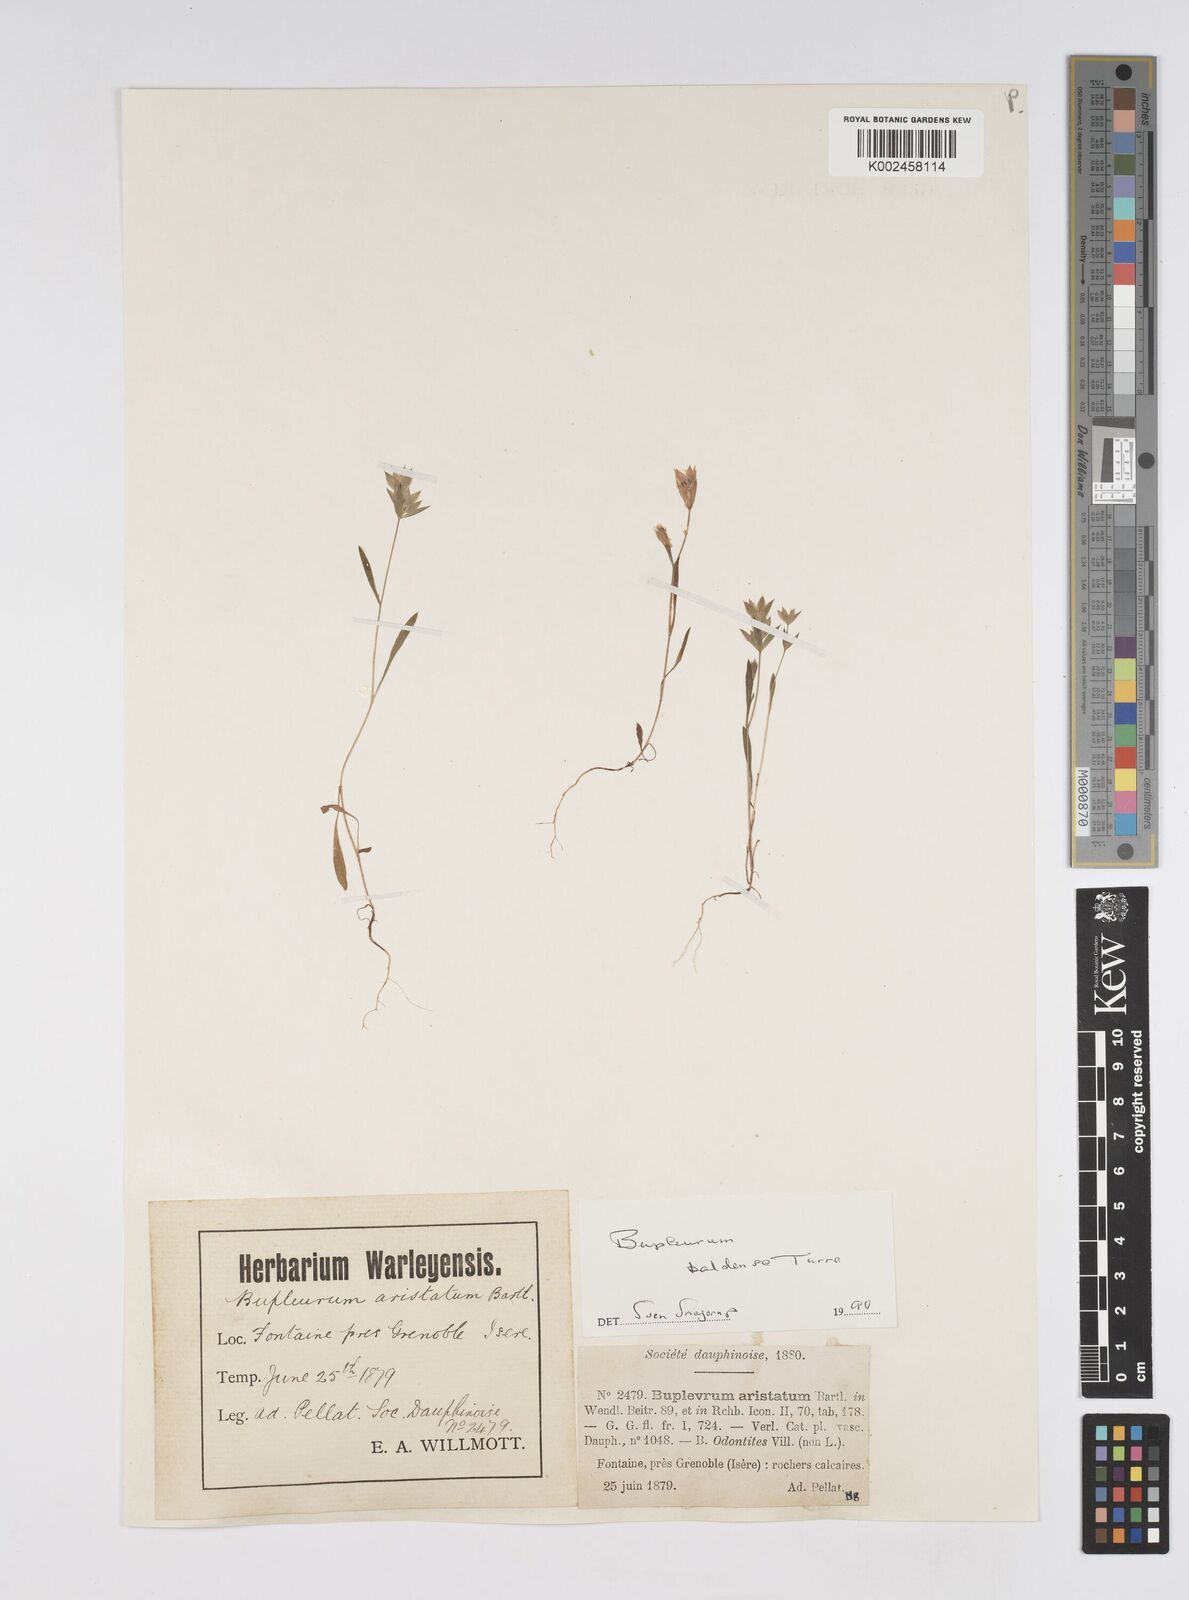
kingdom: Plantae
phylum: Tracheophyta
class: Magnoliopsida
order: Apiales
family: Apiaceae
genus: Bupleurum
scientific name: Bupleurum baldense
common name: Small hare's-ear
